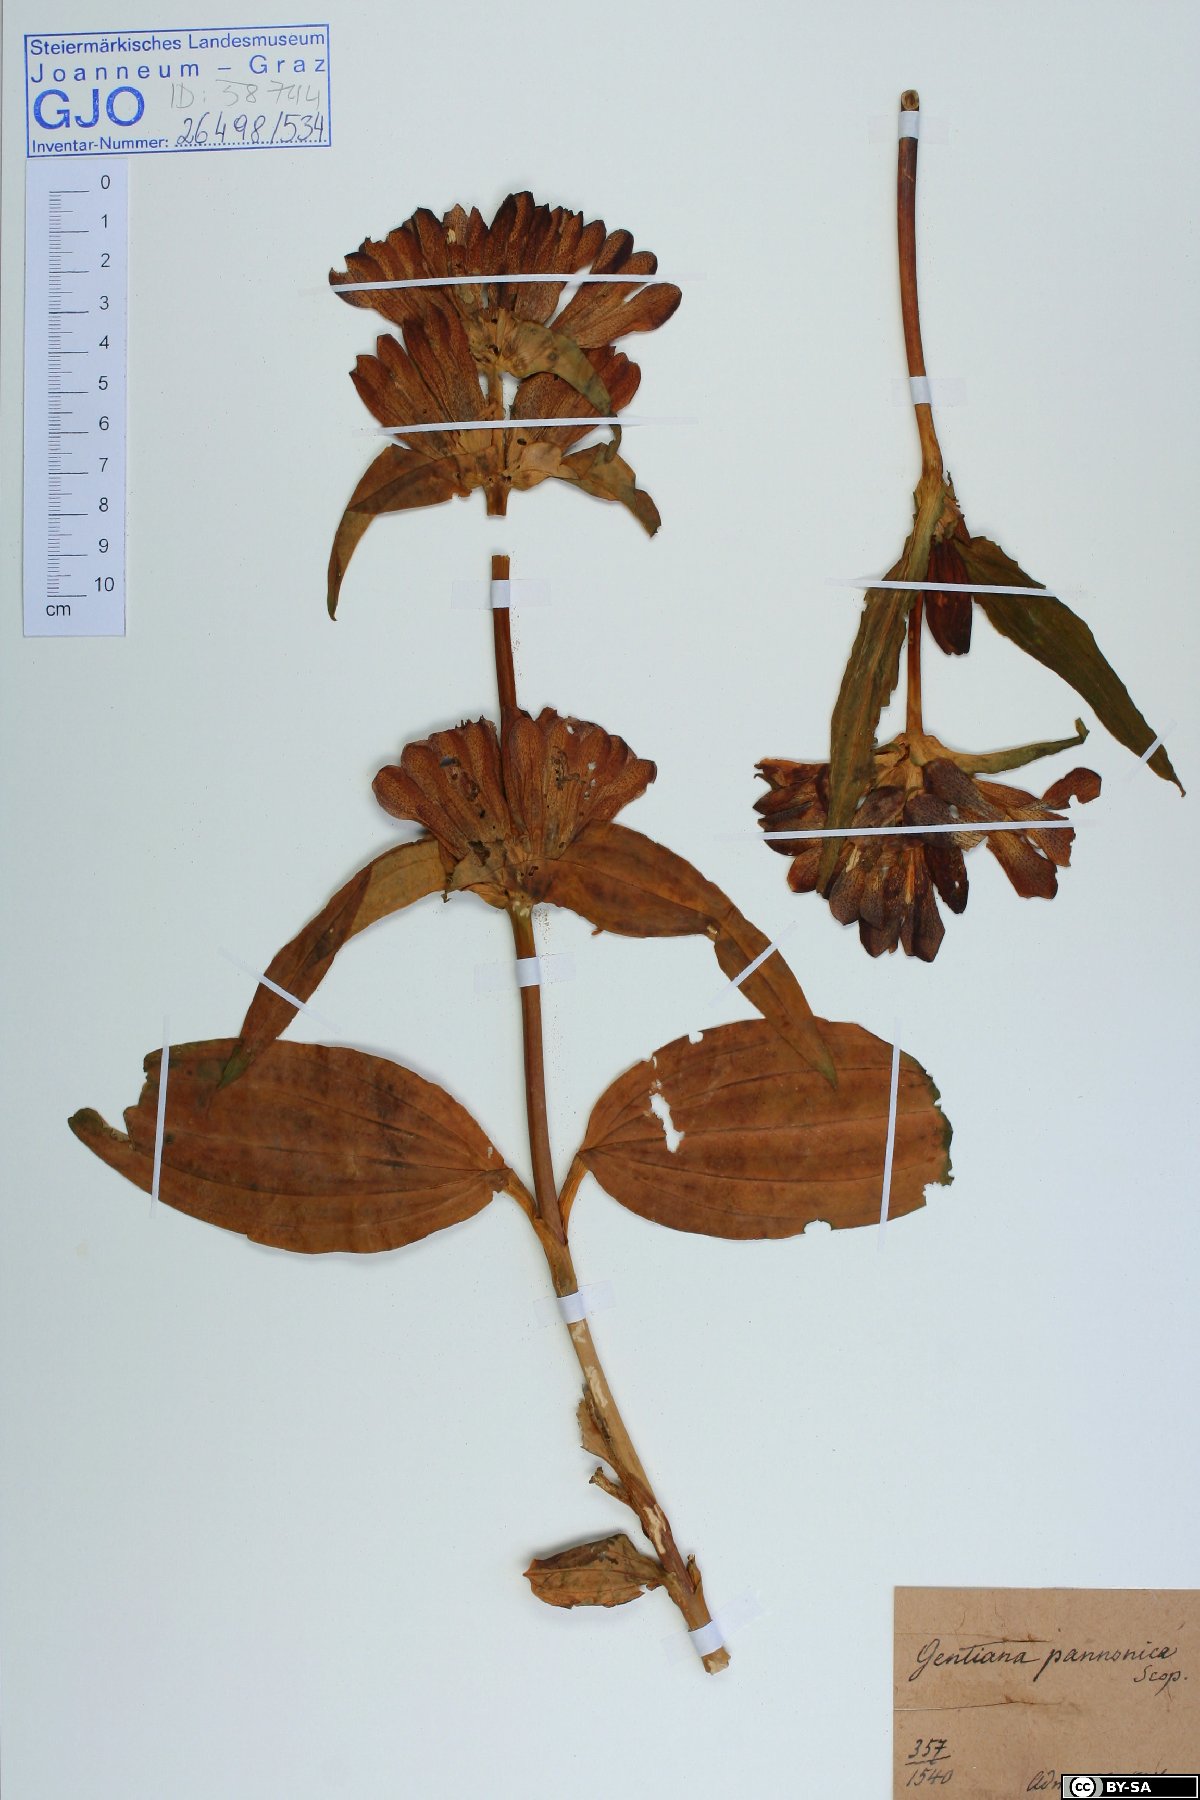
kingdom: Plantae
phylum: Tracheophyta
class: Magnoliopsida
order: Gentianales
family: Gentianaceae
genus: Gentiana
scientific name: Gentiana pannonica
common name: Hungarian gentian
